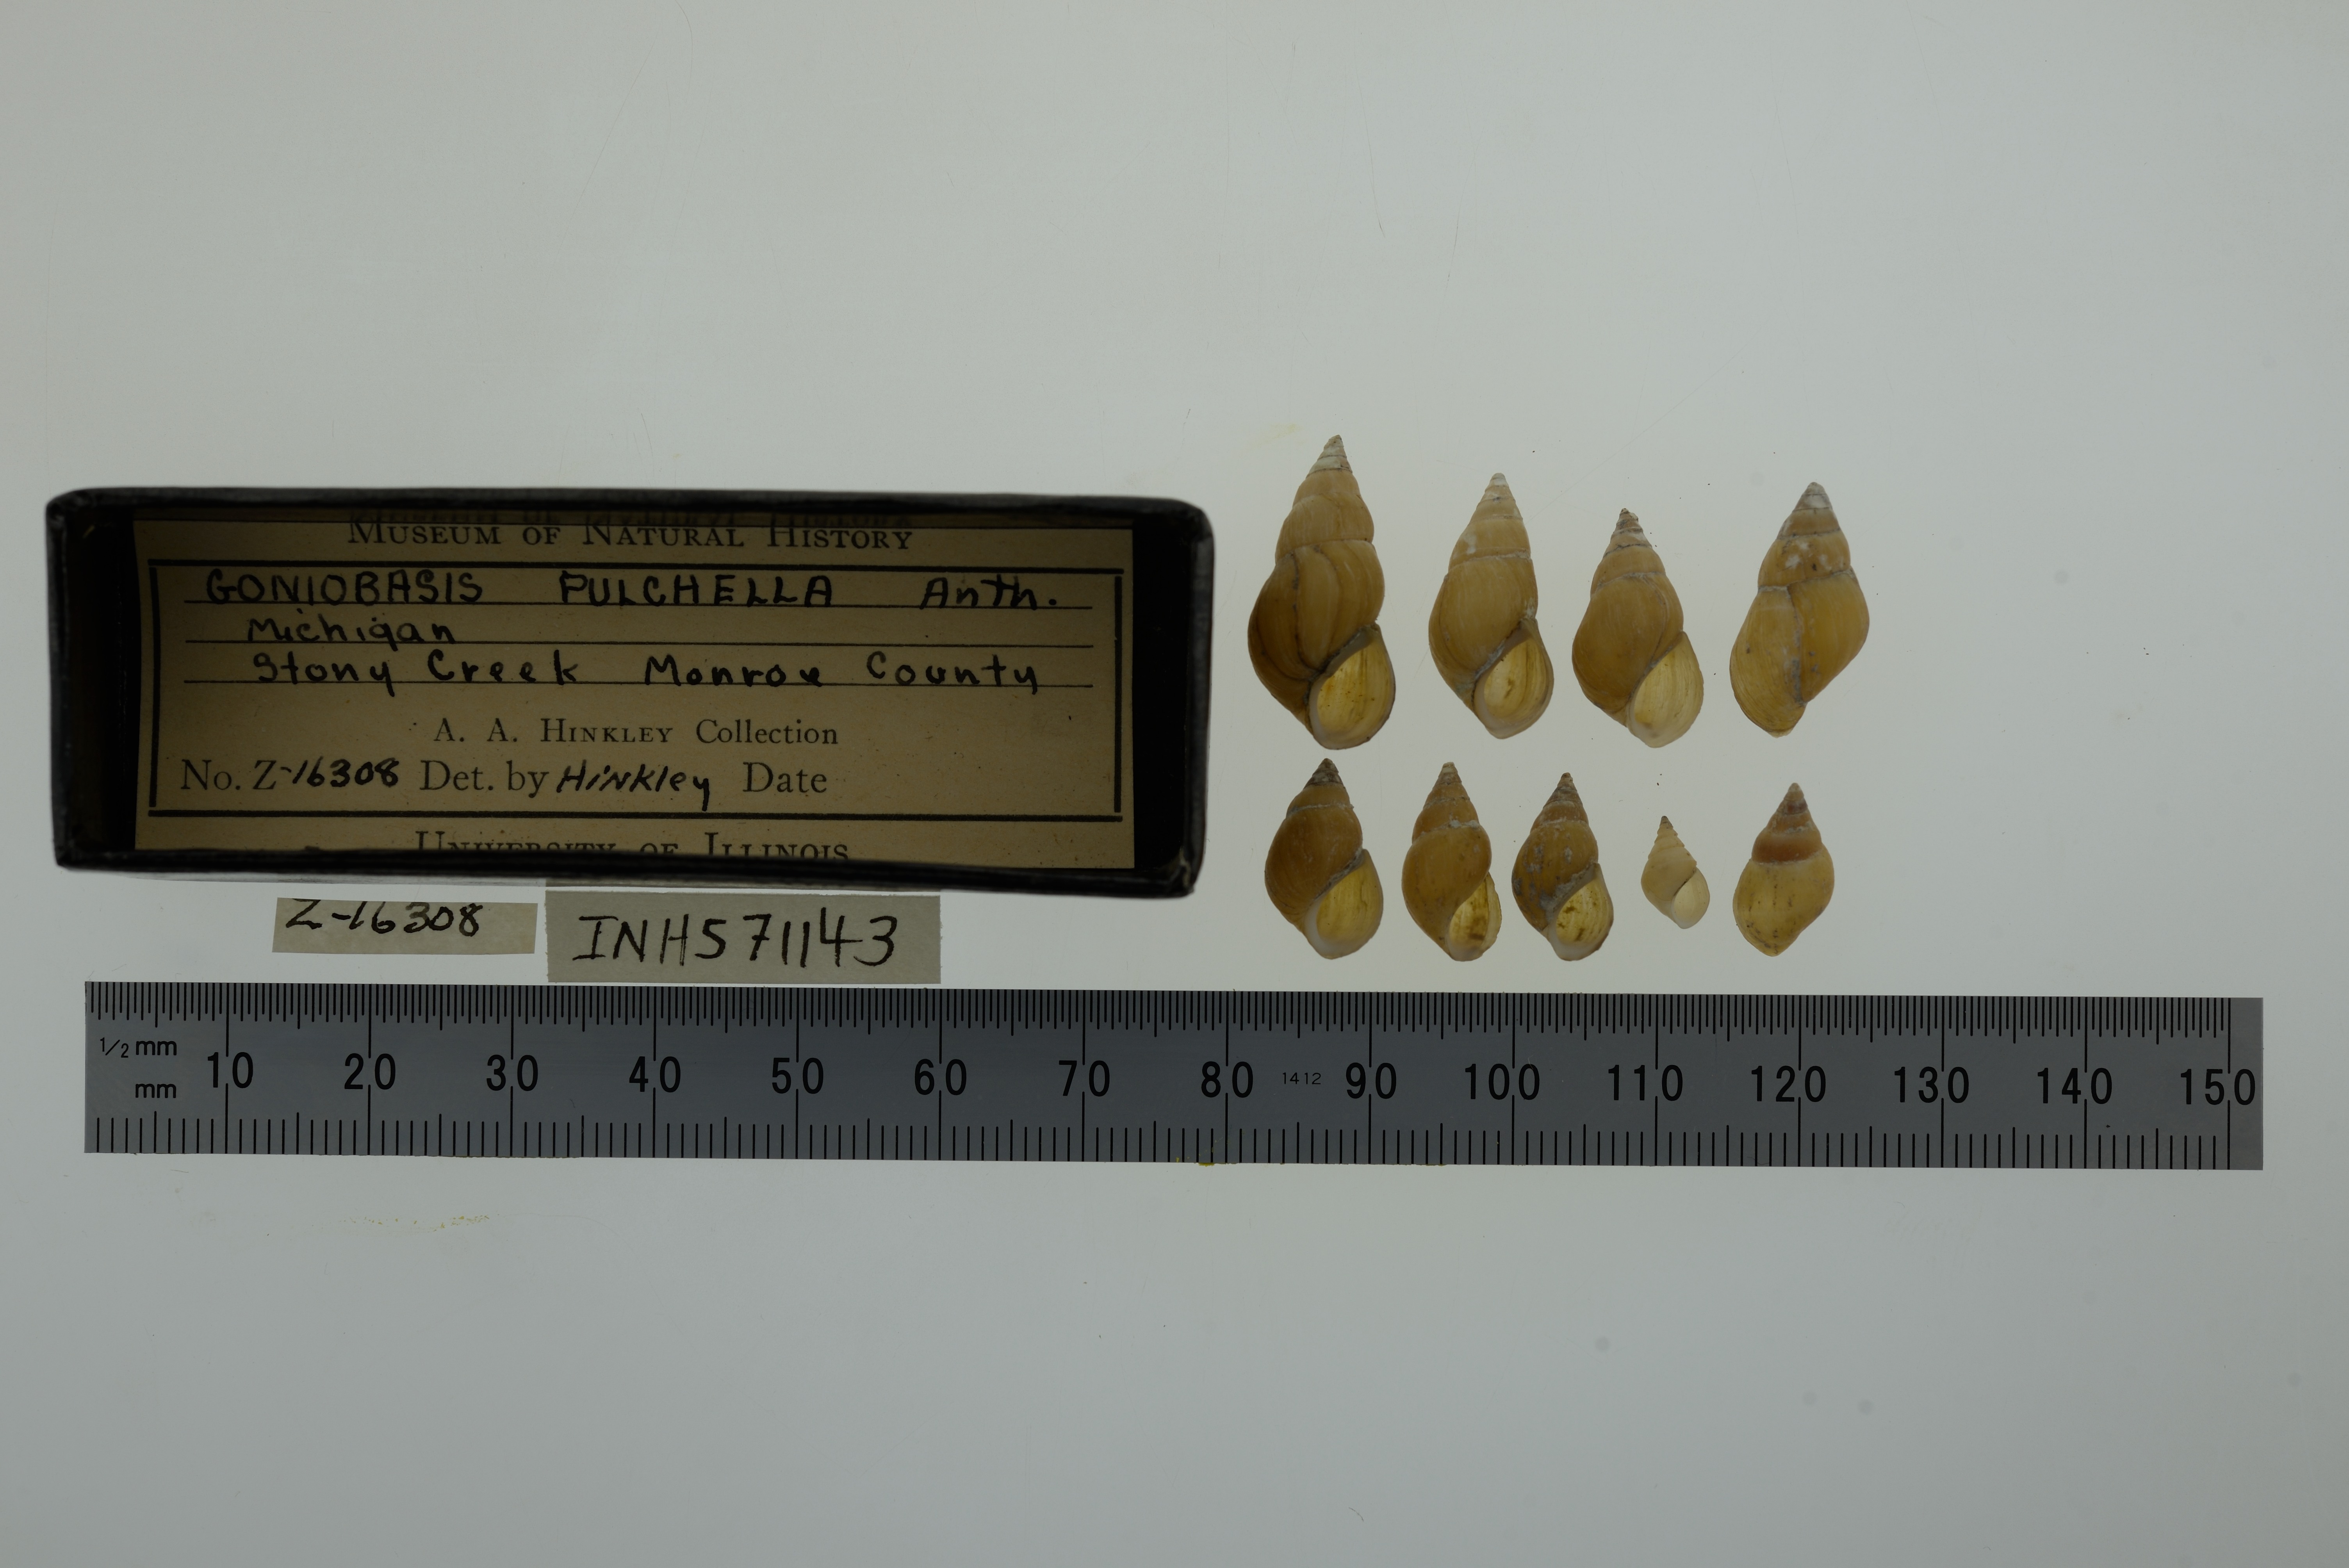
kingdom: Animalia
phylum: Mollusca
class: Gastropoda
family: Pleuroceridae
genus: Elimia
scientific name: Elimia livescens
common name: Liver elimia
